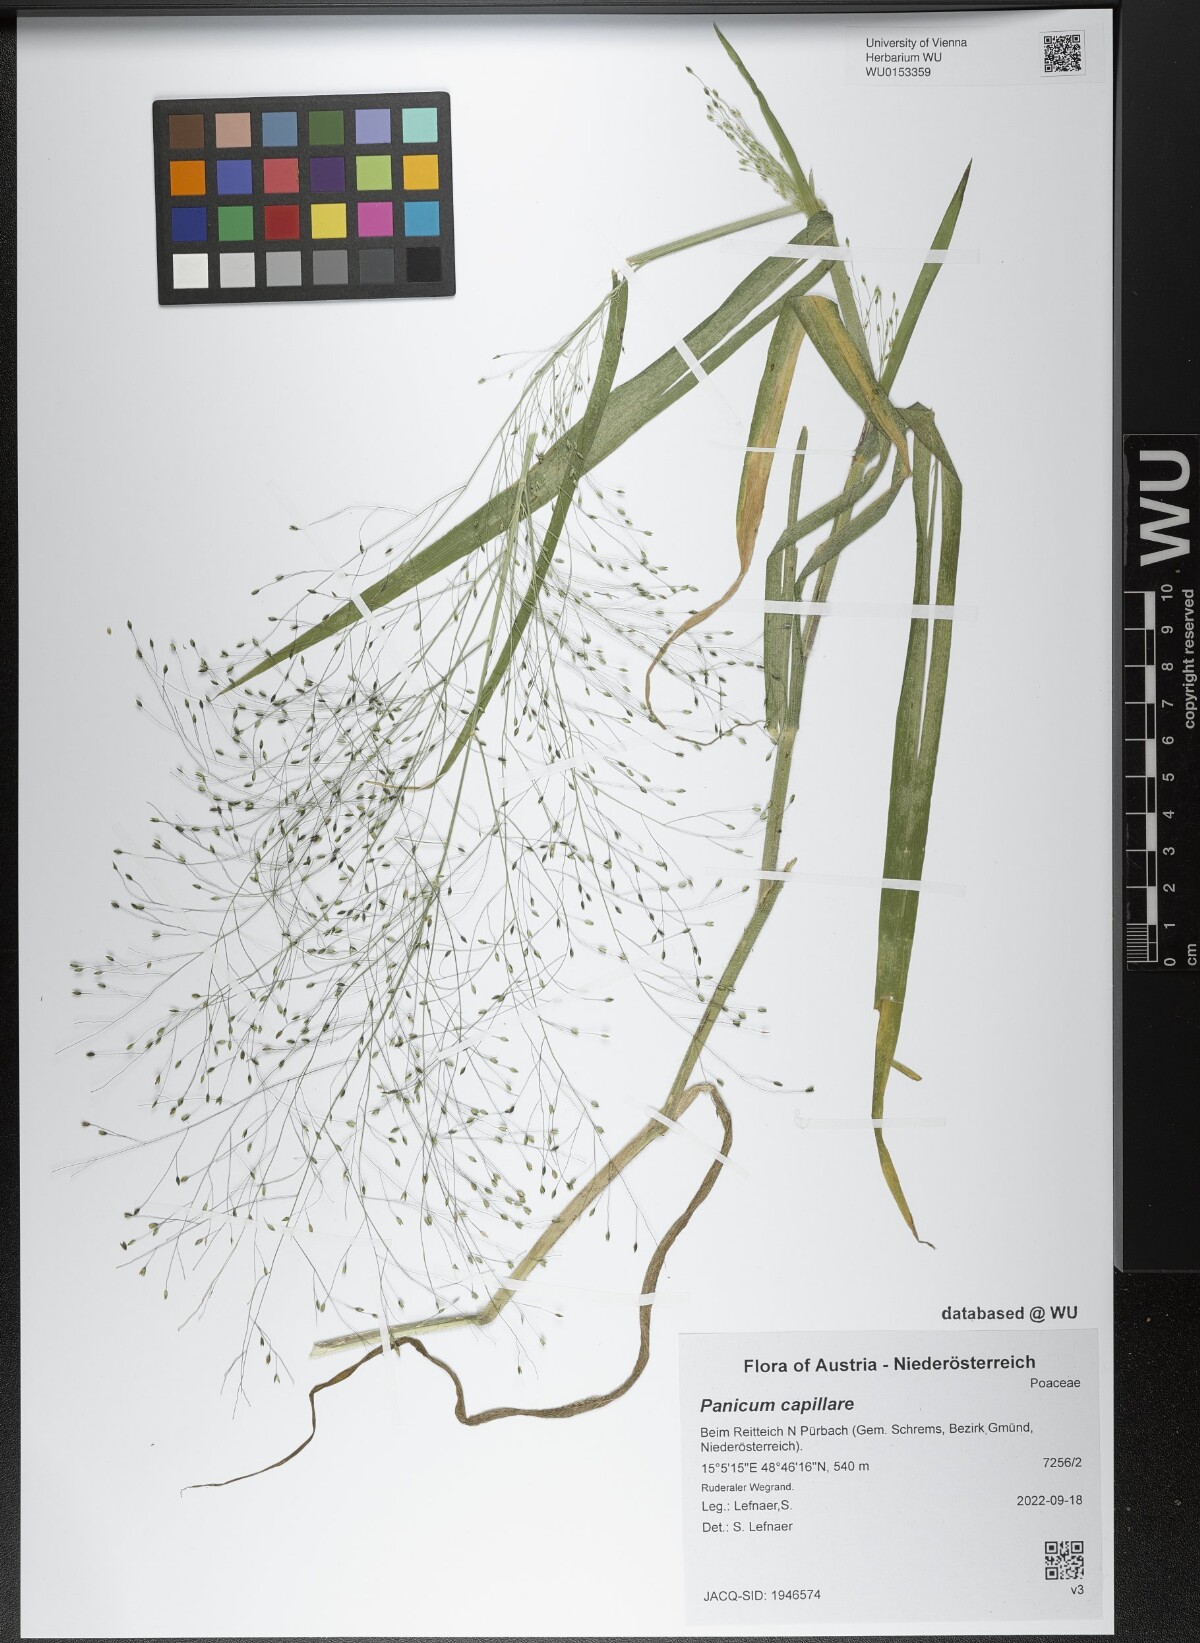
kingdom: Plantae
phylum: Tracheophyta
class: Liliopsida
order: Poales
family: Poaceae
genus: Panicum
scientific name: Panicum capillare
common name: Witch-grass
